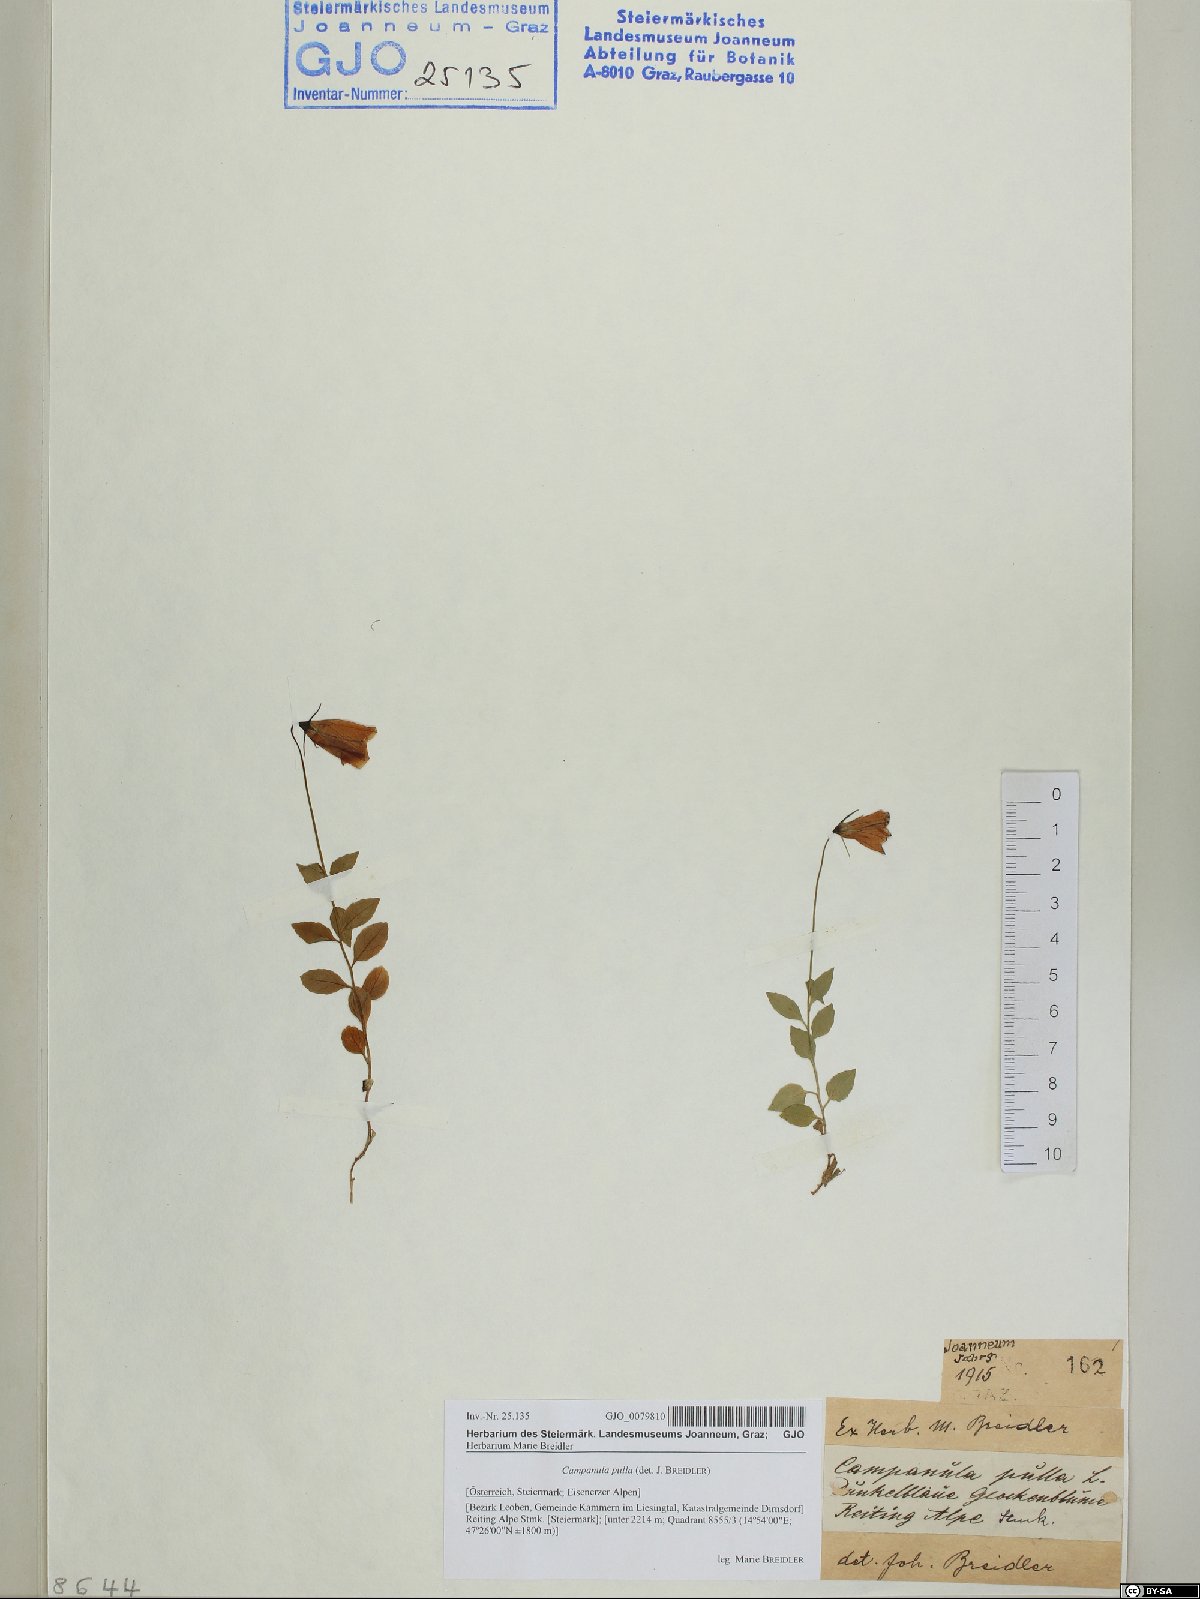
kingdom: Plantae
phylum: Tracheophyta
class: Magnoliopsida
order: Asterales
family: Campanulaceae
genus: Campanula
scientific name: Campanula pulla
